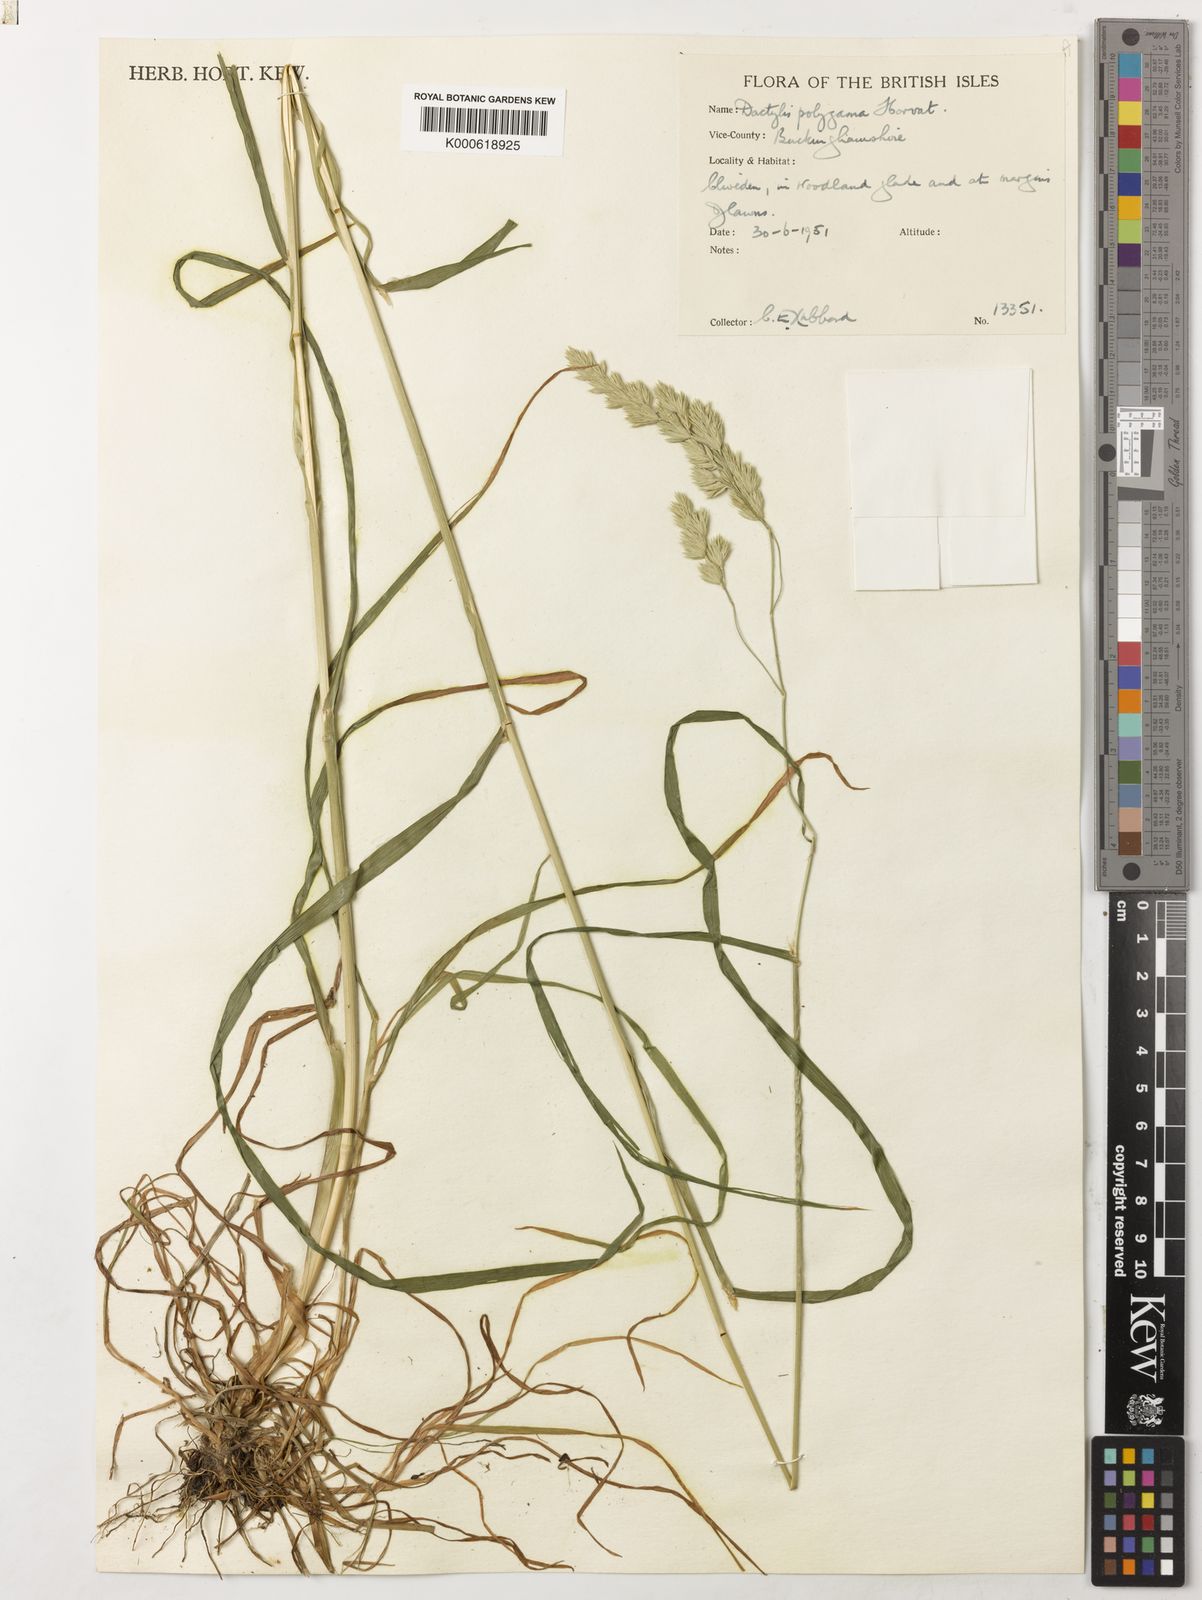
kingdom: Plantae
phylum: Tracheophyta
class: Liliopsida
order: Poales
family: Poaceae
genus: Dactylis
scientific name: Dactylis glomerata
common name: Orchardgrass
